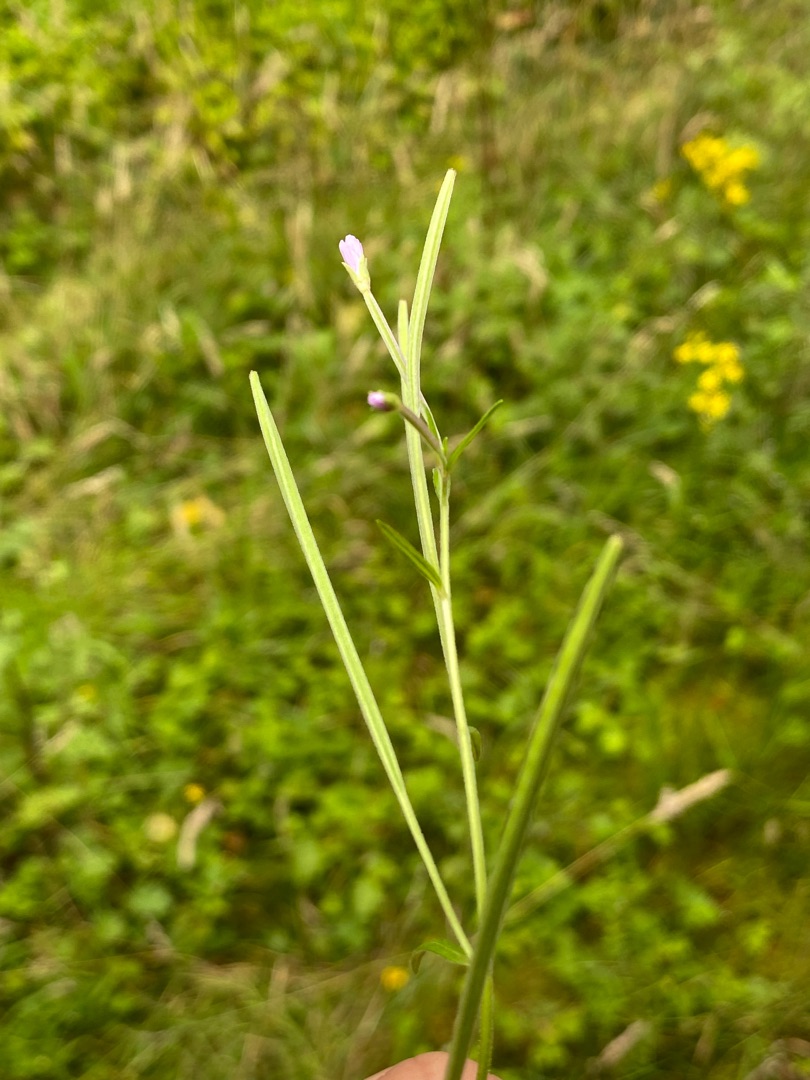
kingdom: Plantae
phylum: Tracheophyta
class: Magnoliopsida
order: Myrtales
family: Onagraceae
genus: Epilobium
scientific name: Epilobium palustre
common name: Kær-dueurt
